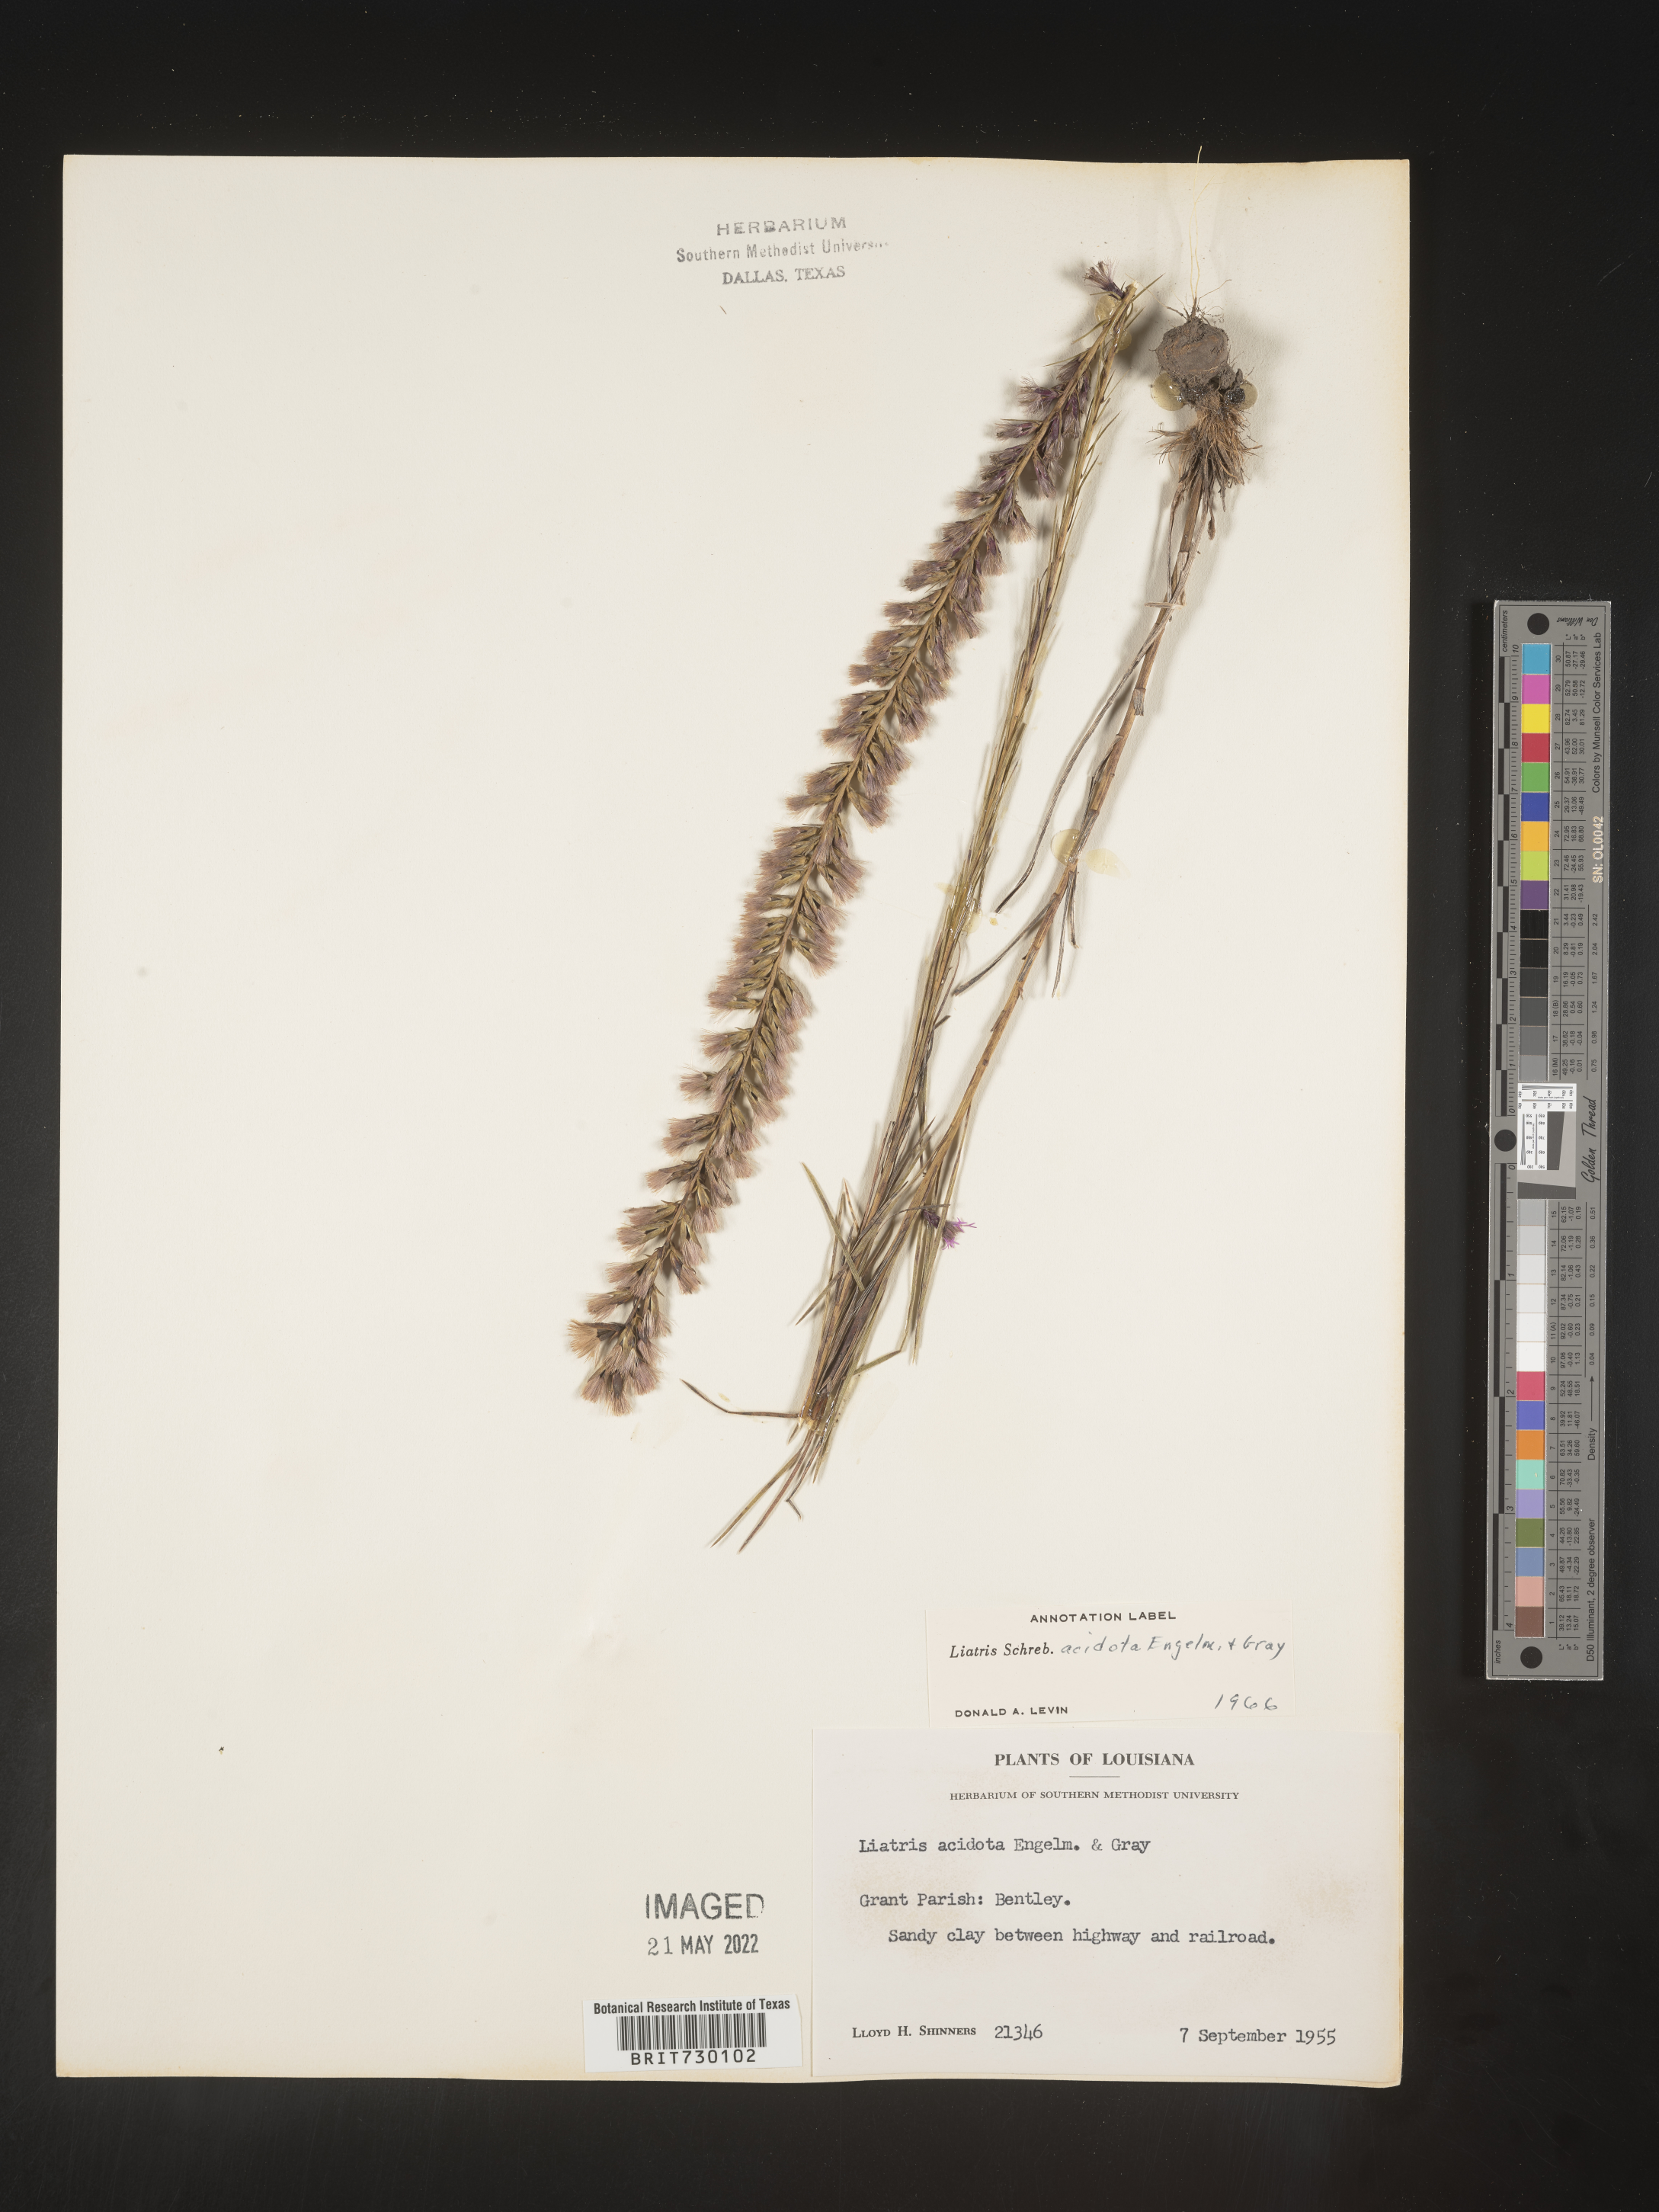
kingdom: Plantae
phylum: Tracheophyta
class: Magnoliopsida
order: Asterales
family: Asteraceae
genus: Liatris
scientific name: Liatris acidota
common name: Gulf coast gayfeather
